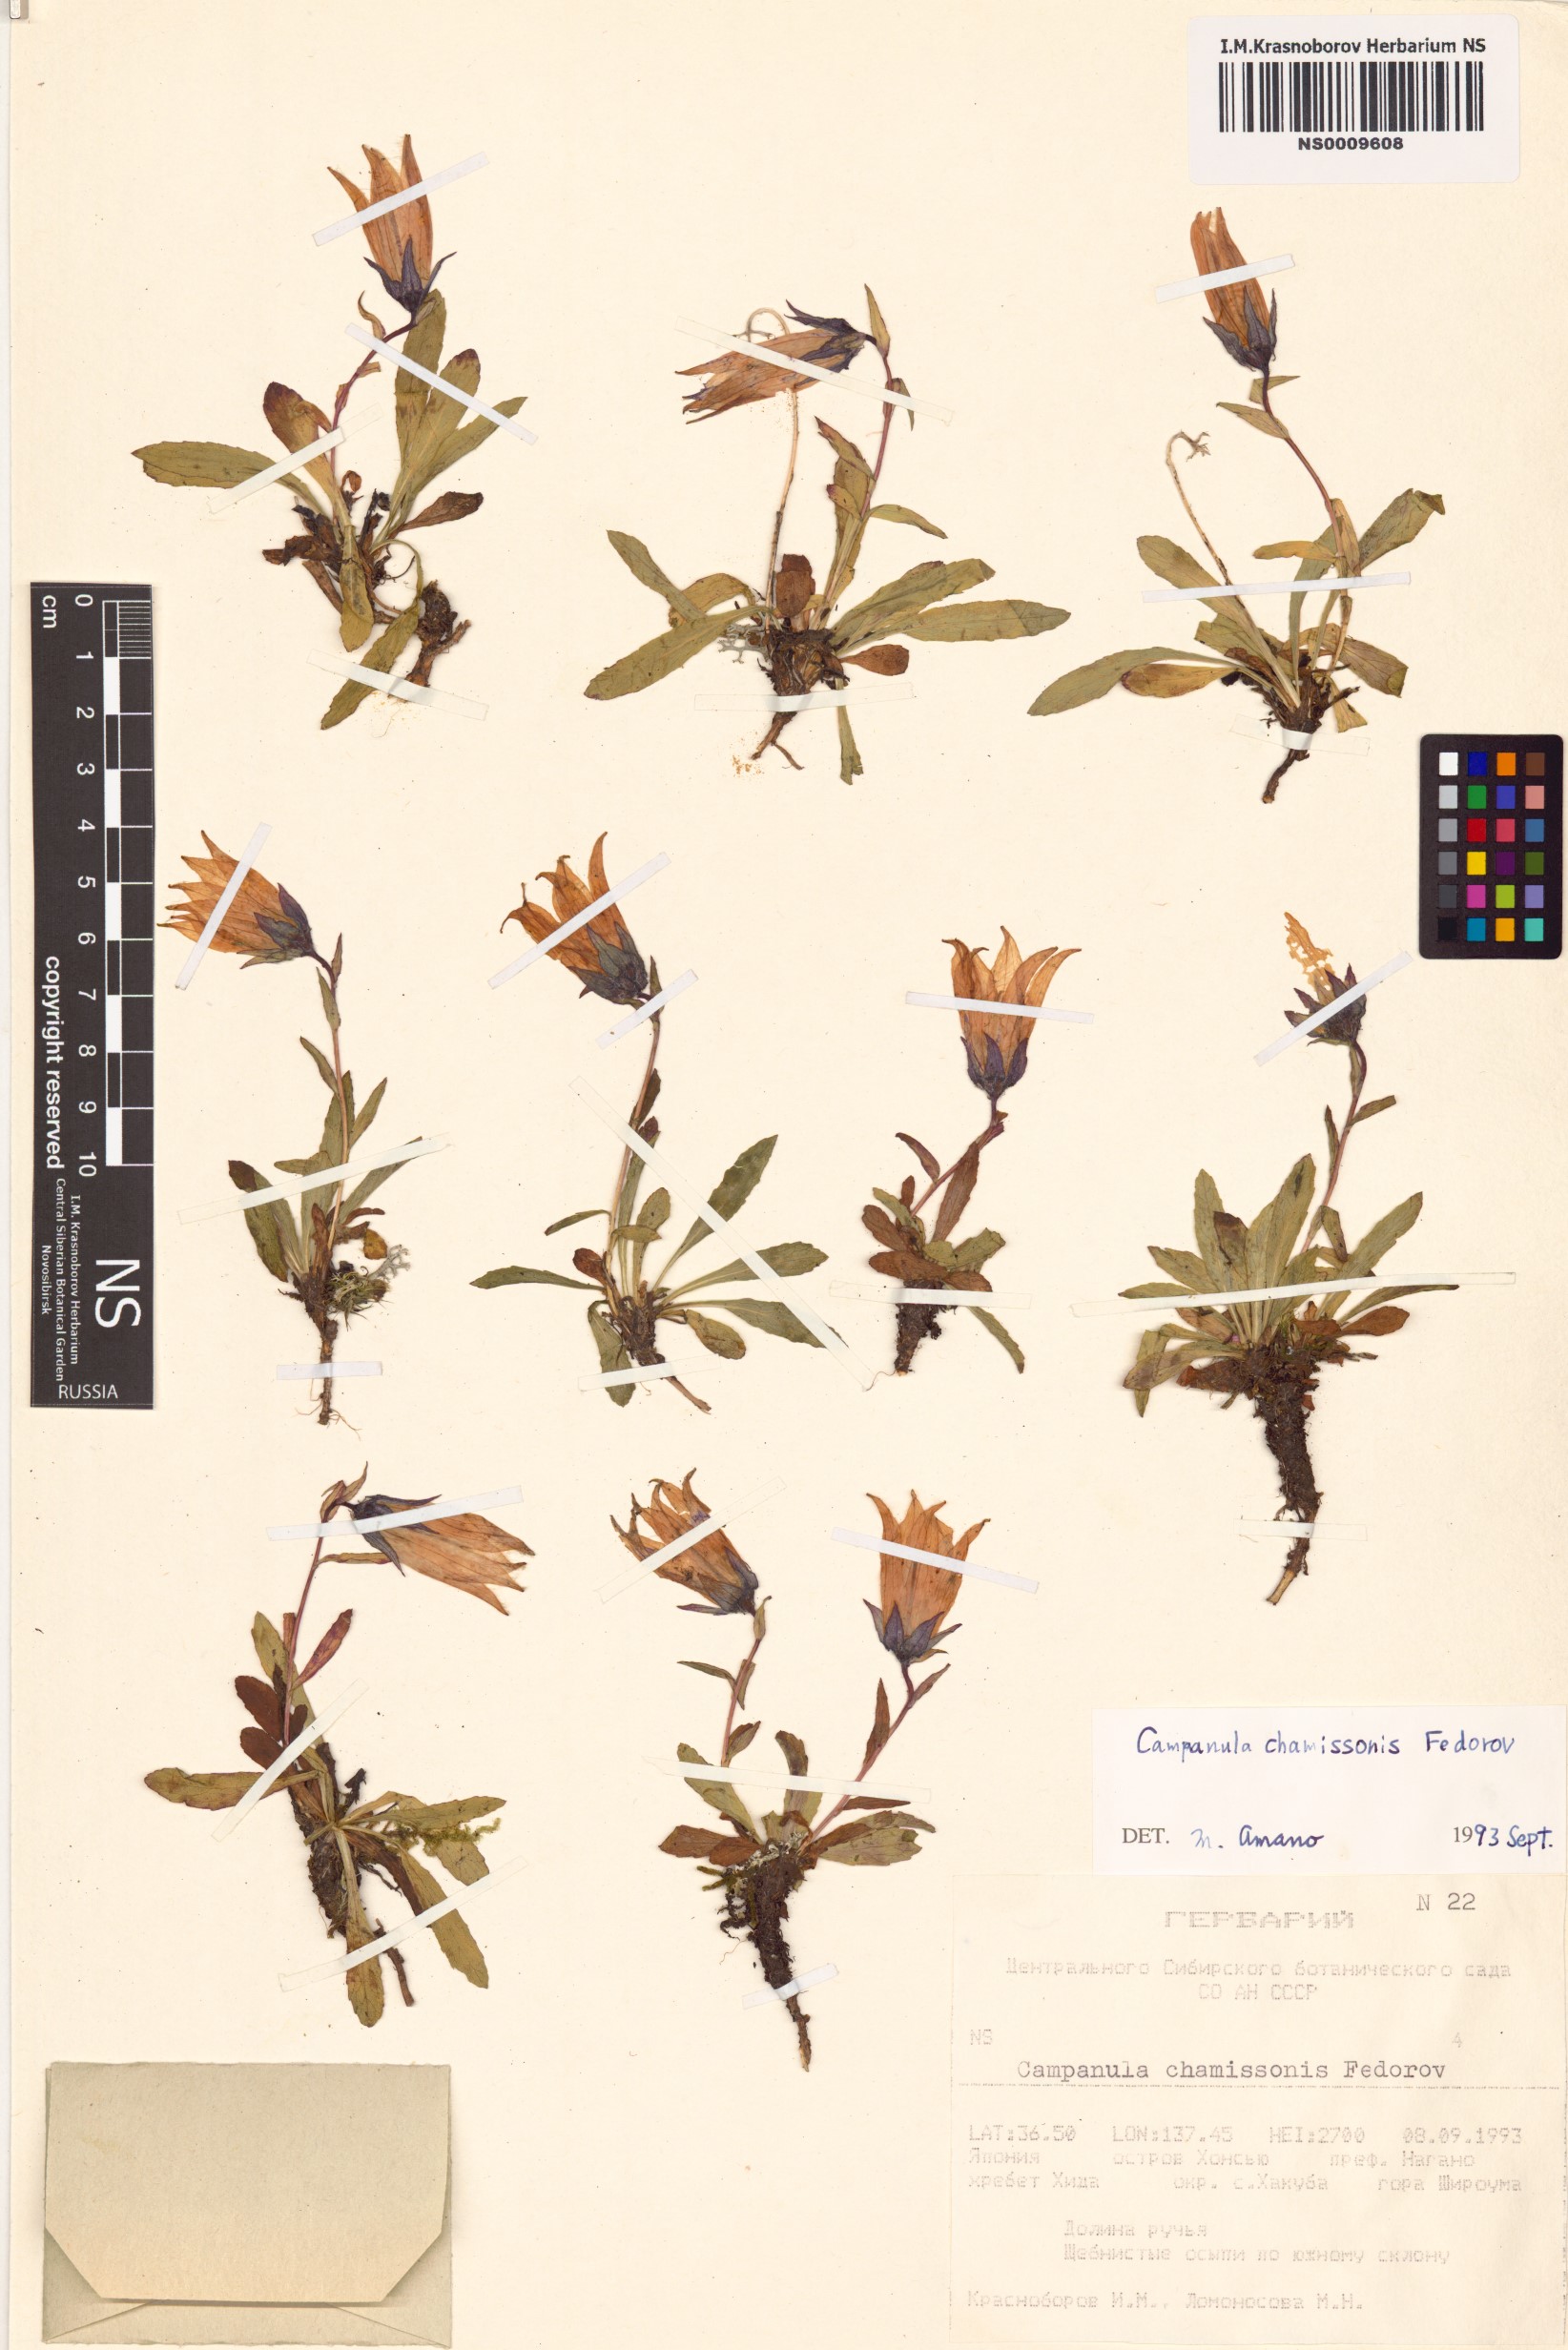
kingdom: Plantae
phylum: Tracheophyta
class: Magnoliopsida
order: Asterales
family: Campanulaceae
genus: Campanula
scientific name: Campanula dasyantha
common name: Hairyflower bellflower
